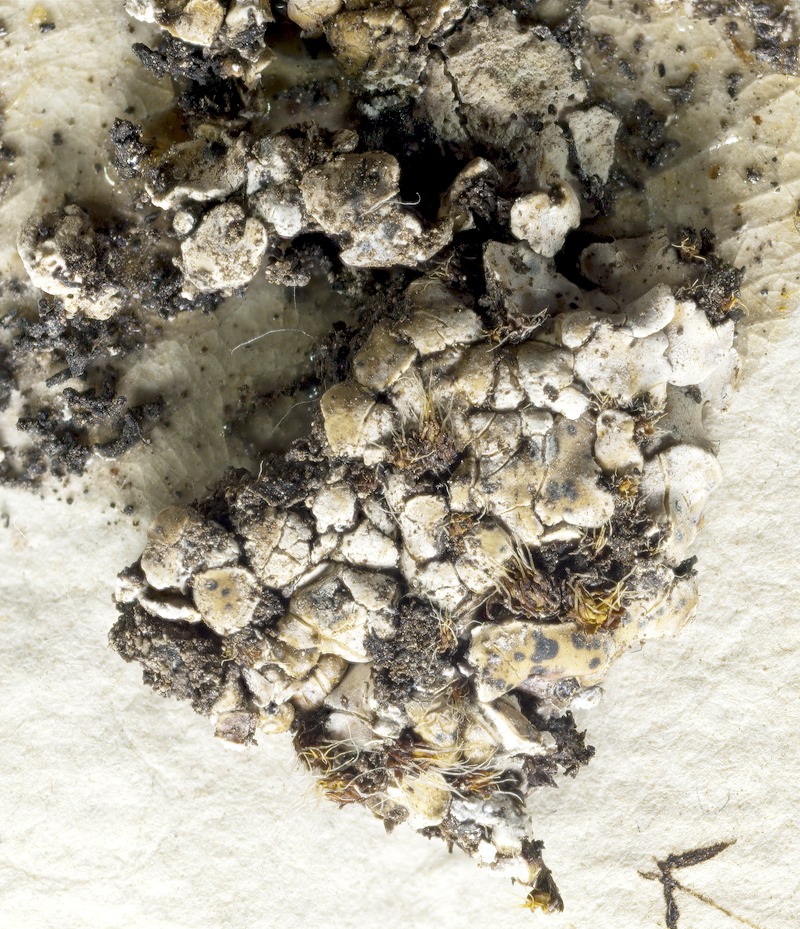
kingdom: Fungi
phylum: Ascomycota
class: Dothideomycetes
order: Trypetheliales
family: Polycoccaceae
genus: Polycoccum
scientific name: Polycoccum psoromatis
